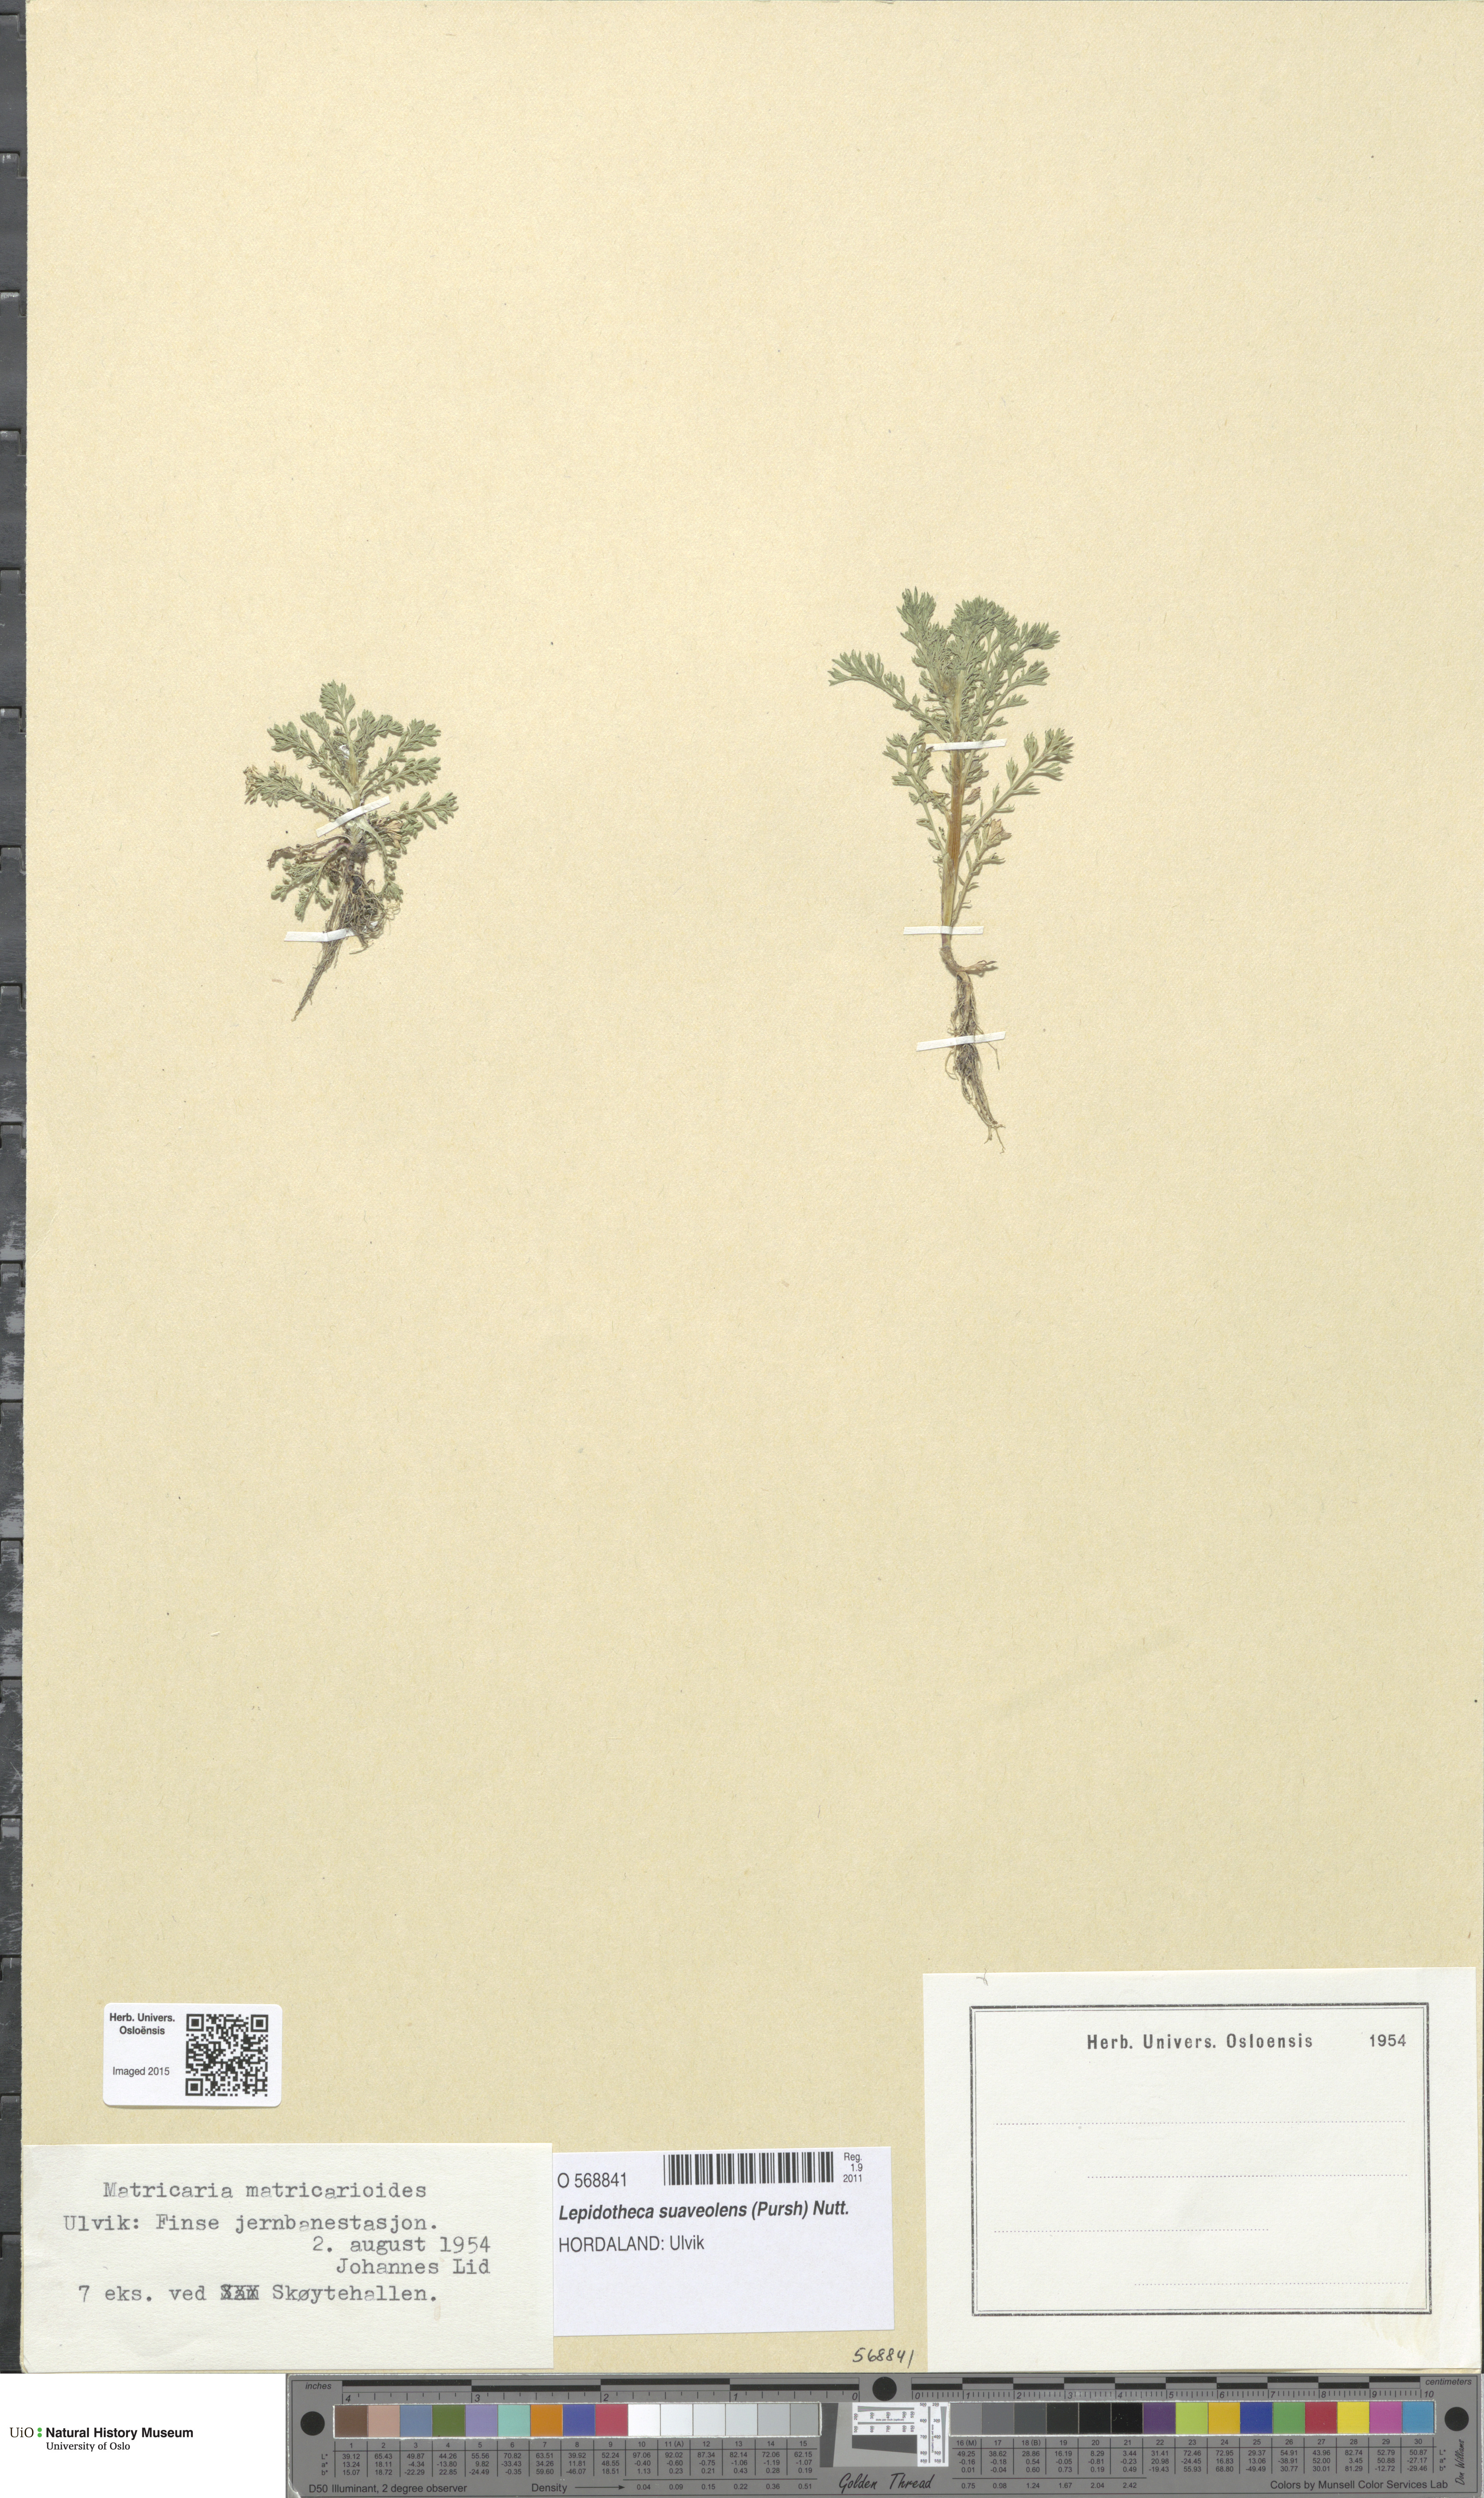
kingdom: Plantae
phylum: Tracheophyta
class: Magnoliopsida
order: Asterales
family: Asteraceae
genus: Matricaria
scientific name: Matricaria discoidea
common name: Disc mayweed
